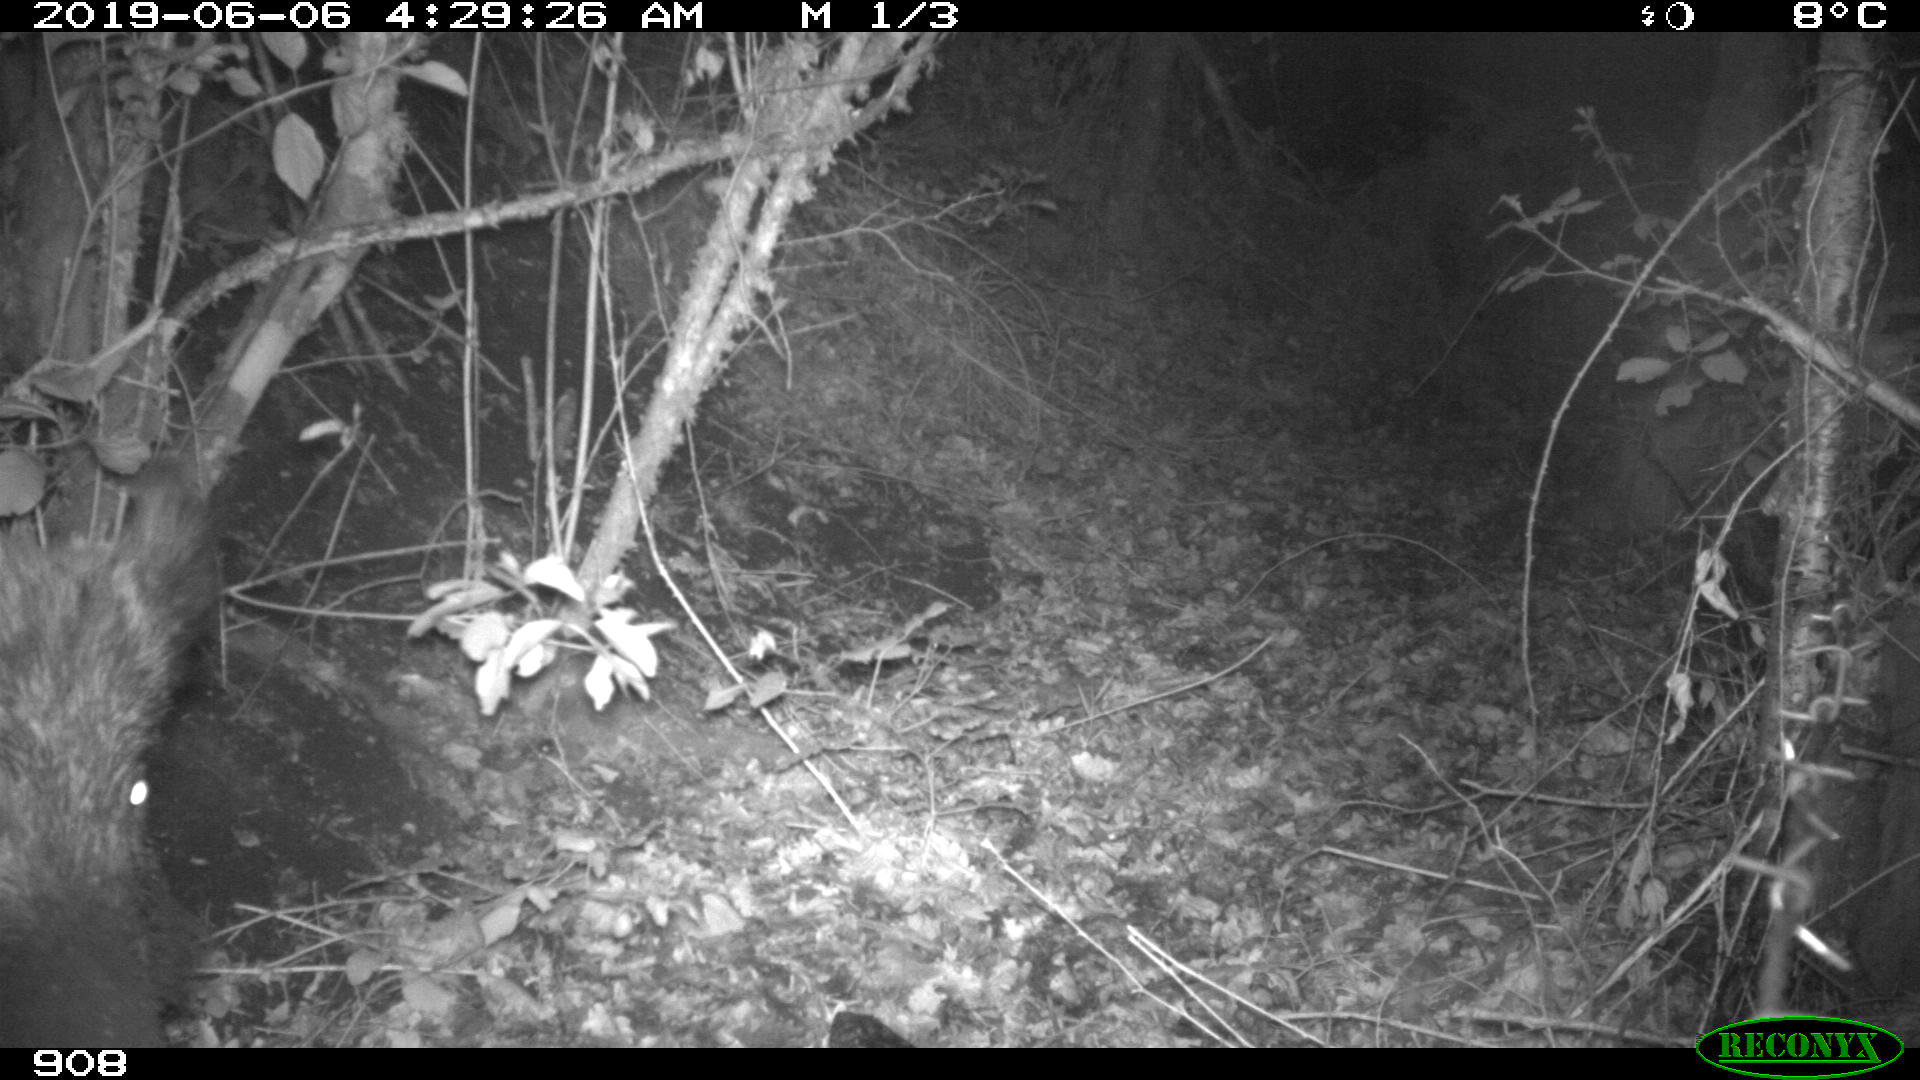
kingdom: Animalia
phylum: Chordata
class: Mammalia
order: Artiodactyla
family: Suidae
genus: Sus
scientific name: Sus scrofa
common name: Wild boar
